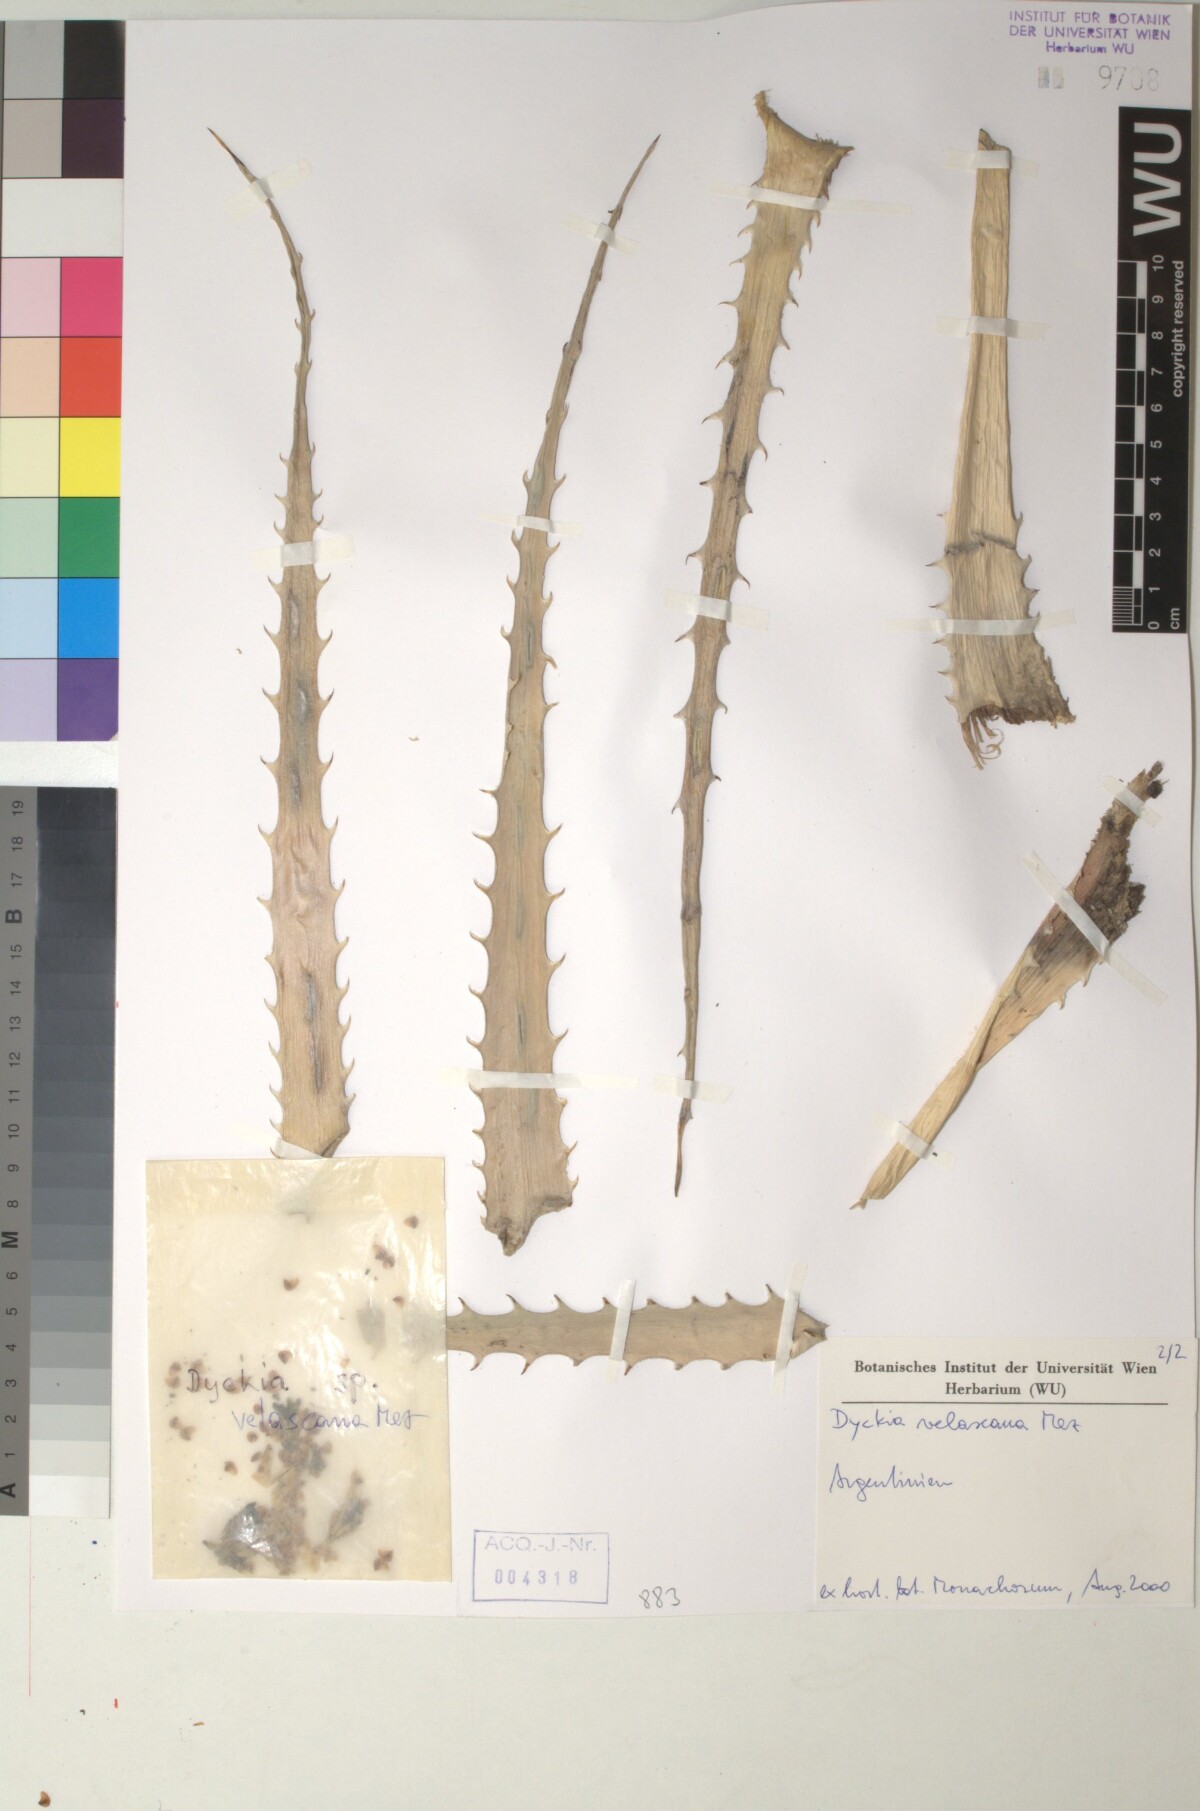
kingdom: Plantae
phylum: Tracheophyta
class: Liliopsida
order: Poales
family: Bromeliaceae
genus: Dyckia
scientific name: Dyckia velascana
